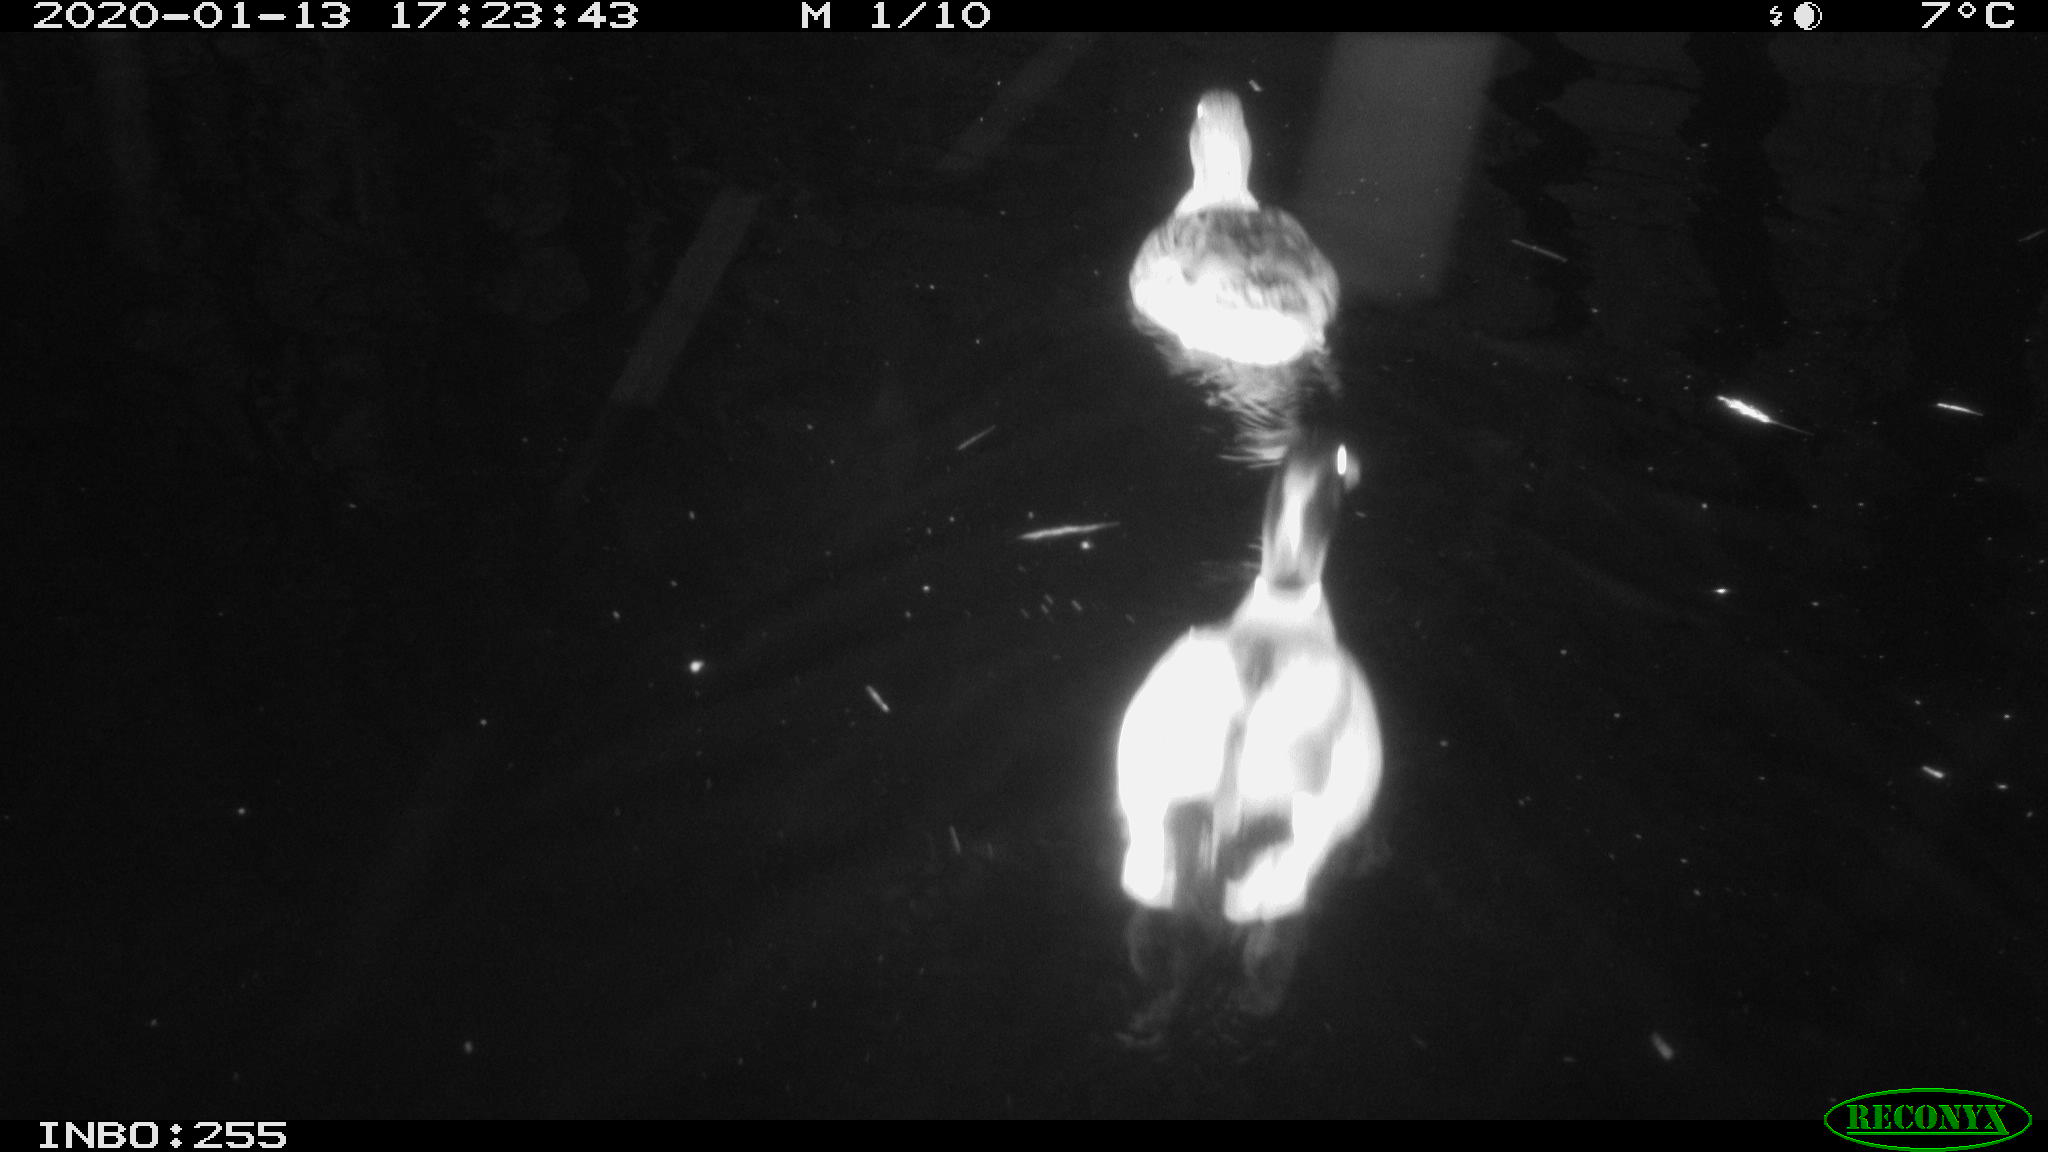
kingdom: Animalia
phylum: Chordata
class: Aves
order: Anseriformes
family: Anatidae
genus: Anas
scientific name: Anas platyrhynchos
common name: Mallard
